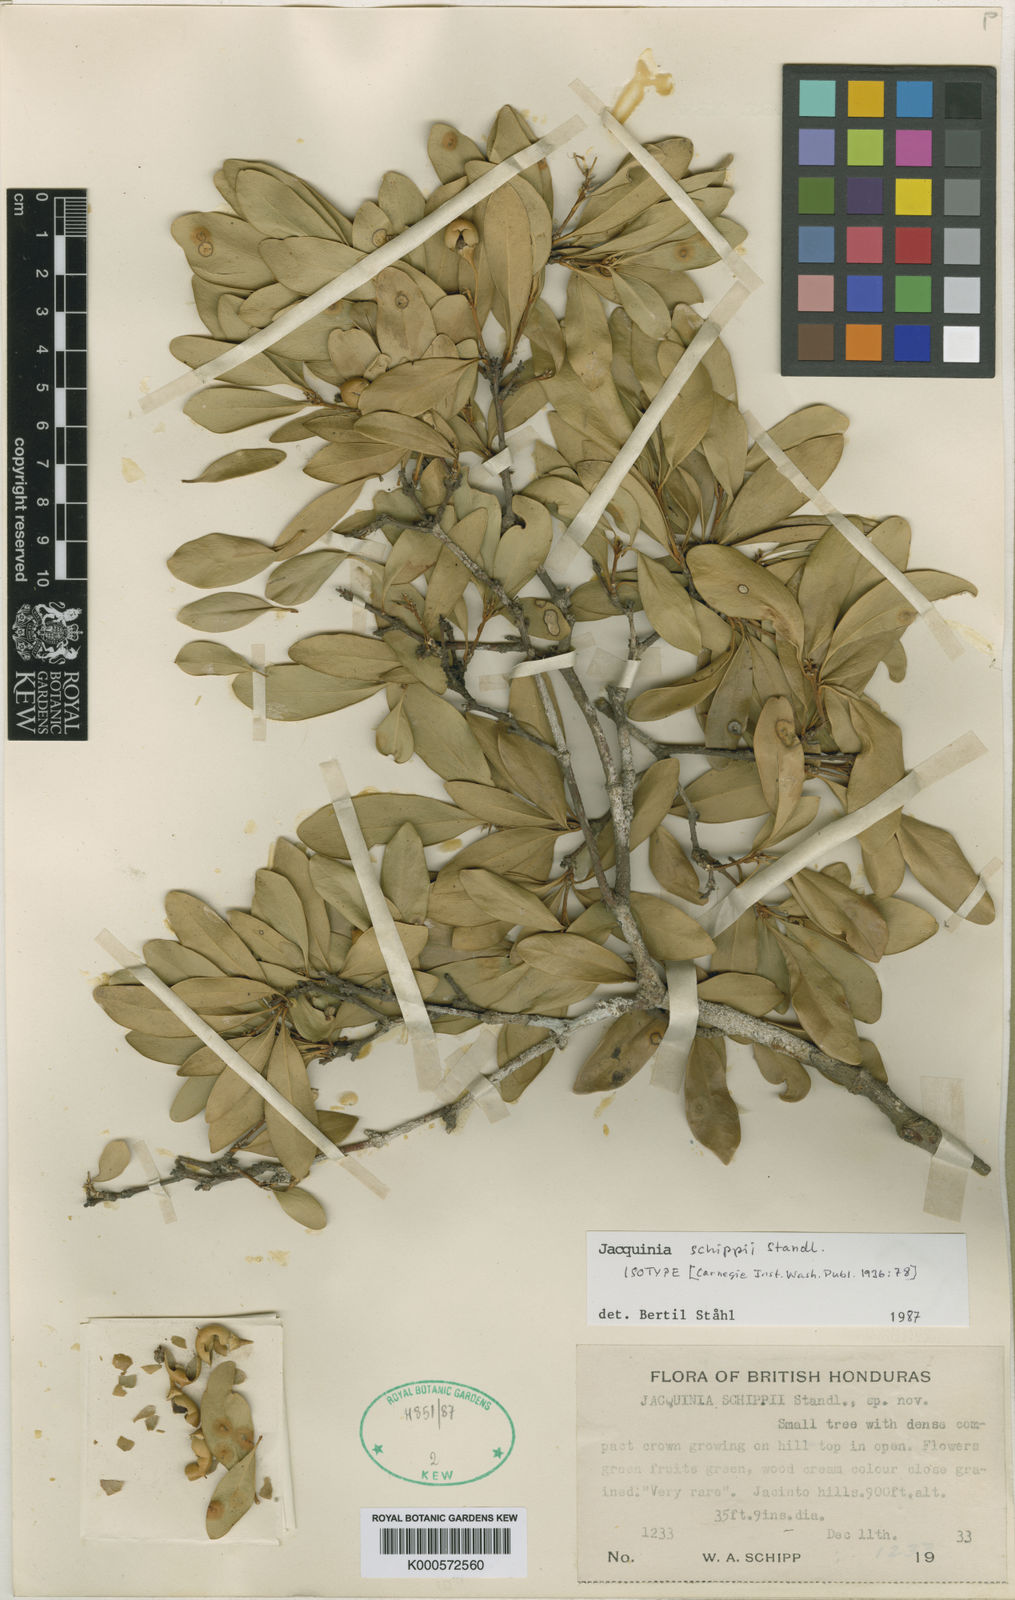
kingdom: Plantae
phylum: Tracheophyta
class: Magnoliopsida
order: Ericales
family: Primulaceae
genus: Bonellia
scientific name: Bonellia longifolia
